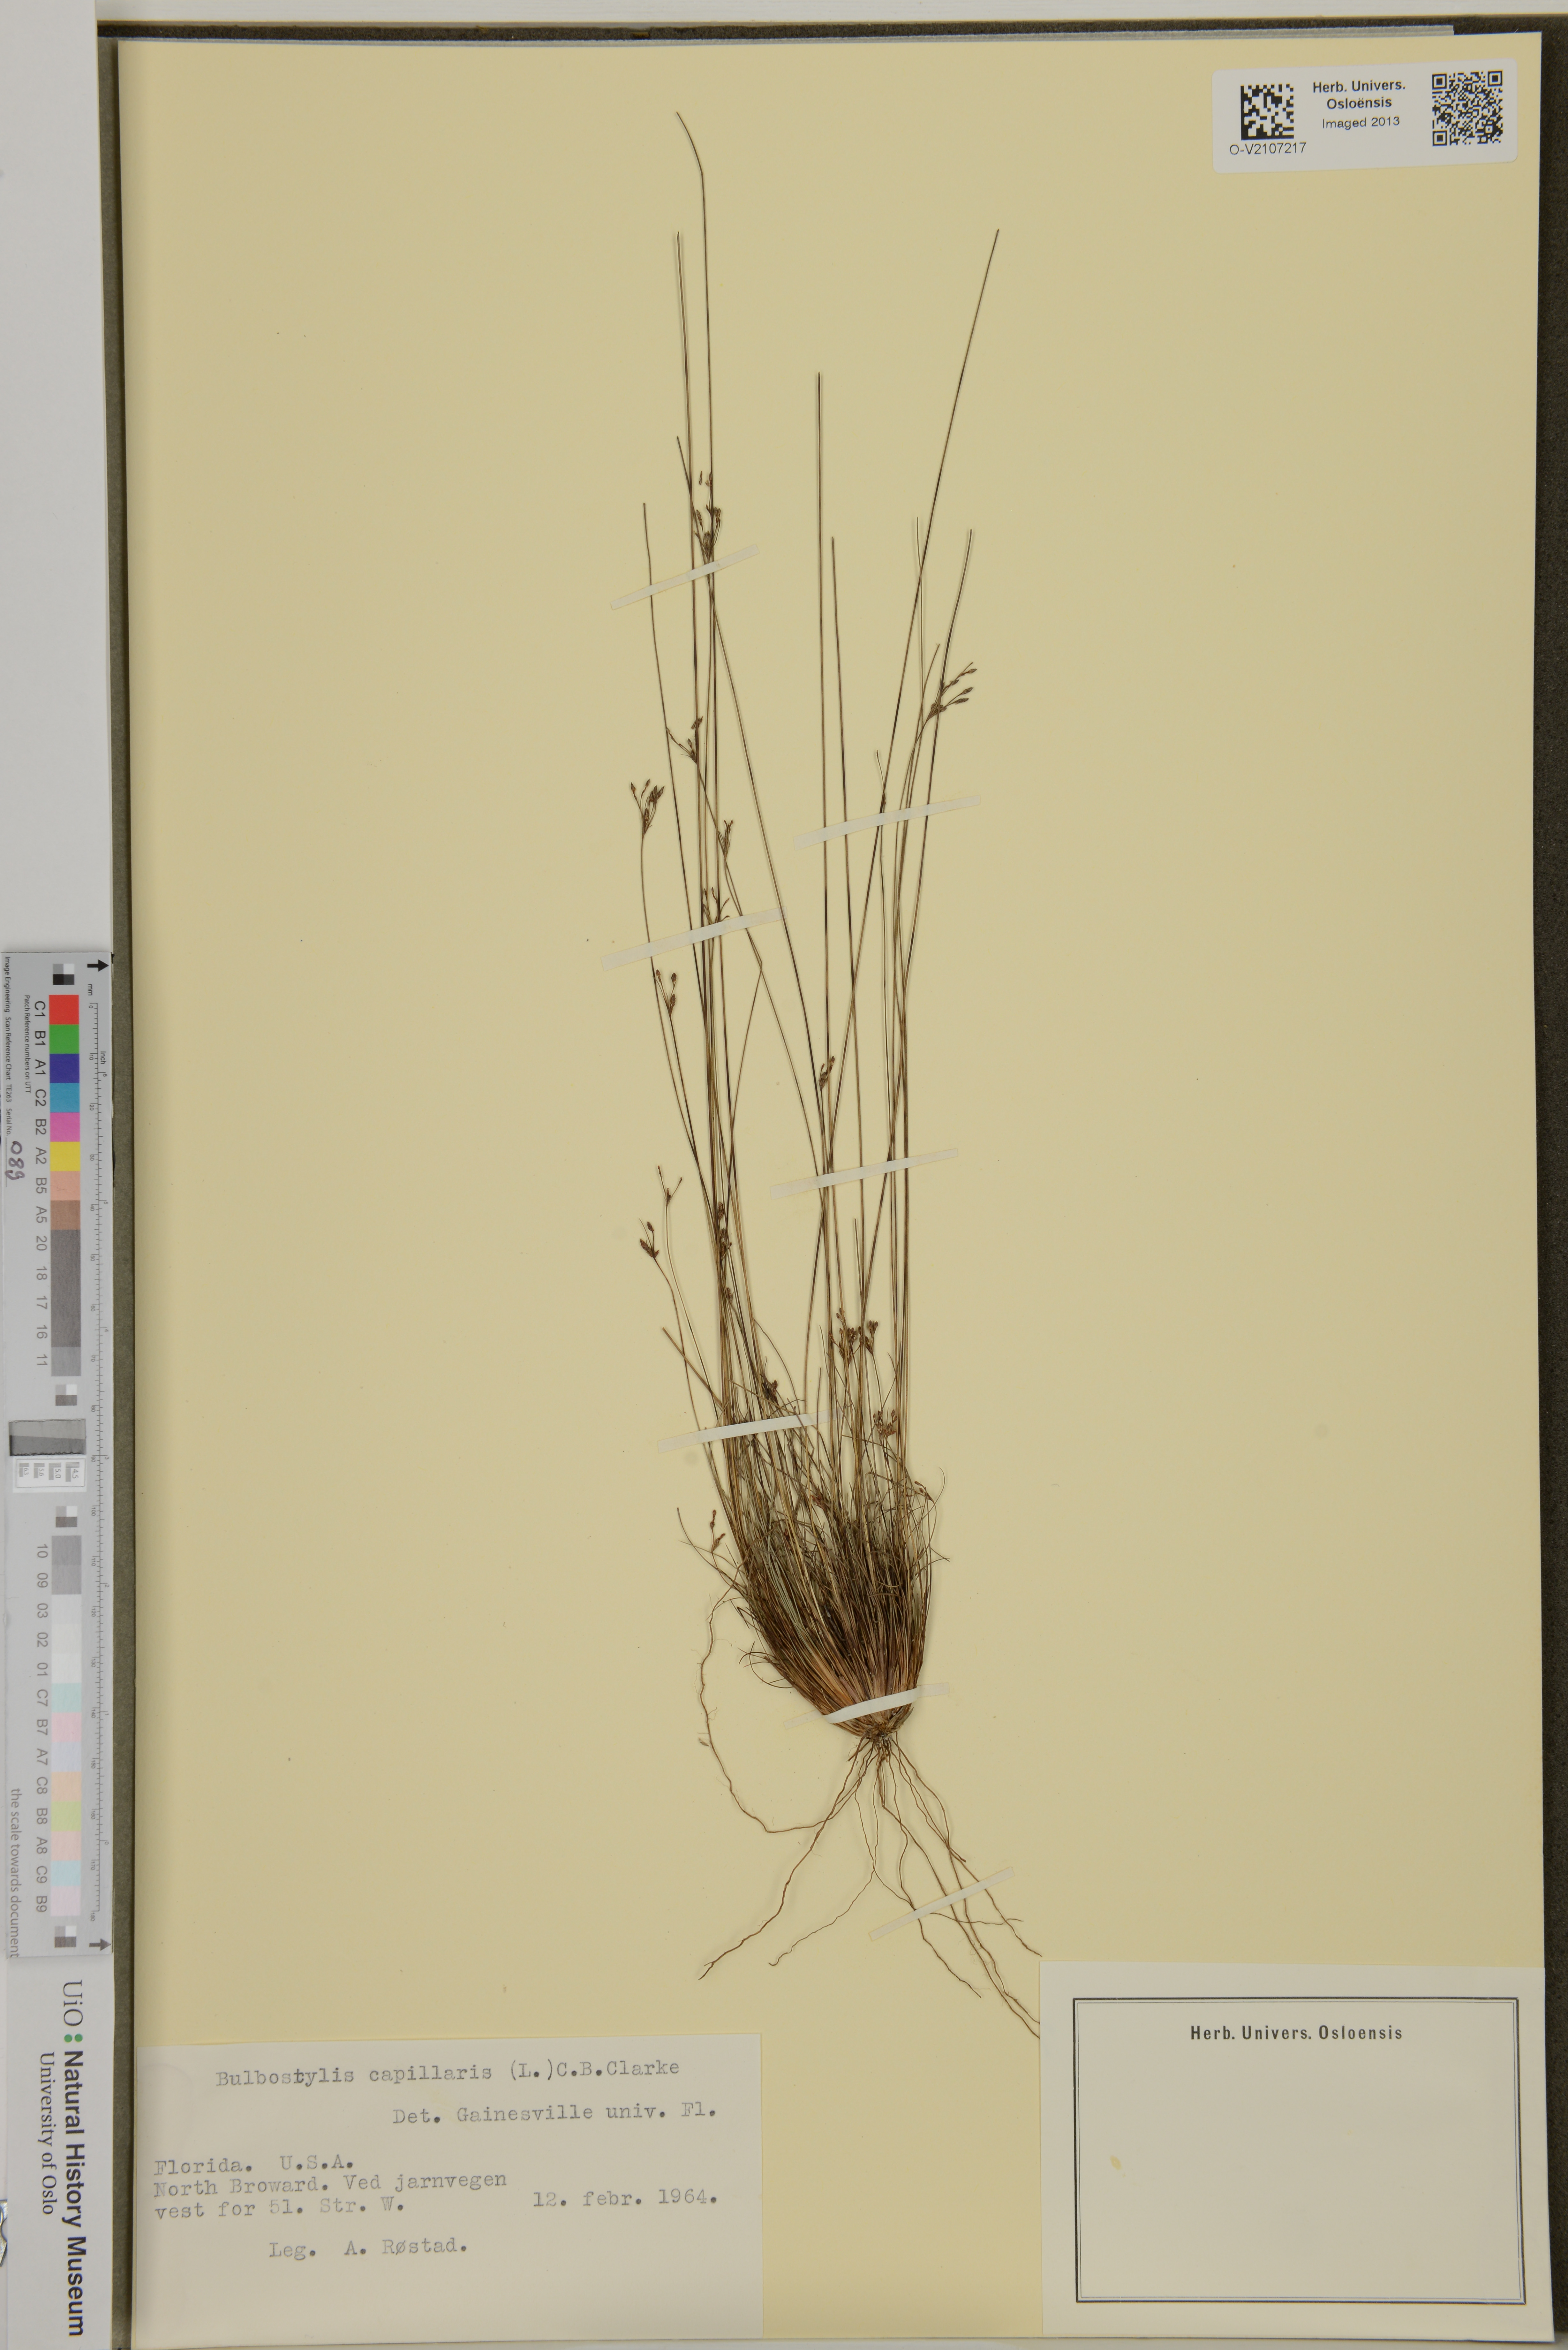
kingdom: Plantae
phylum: Tracheophyta
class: Liliopsida
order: Poales
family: Cyperaceae
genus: Bulbostylis
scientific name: Bulbostylis capillaris
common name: Densetuft hairsedge
